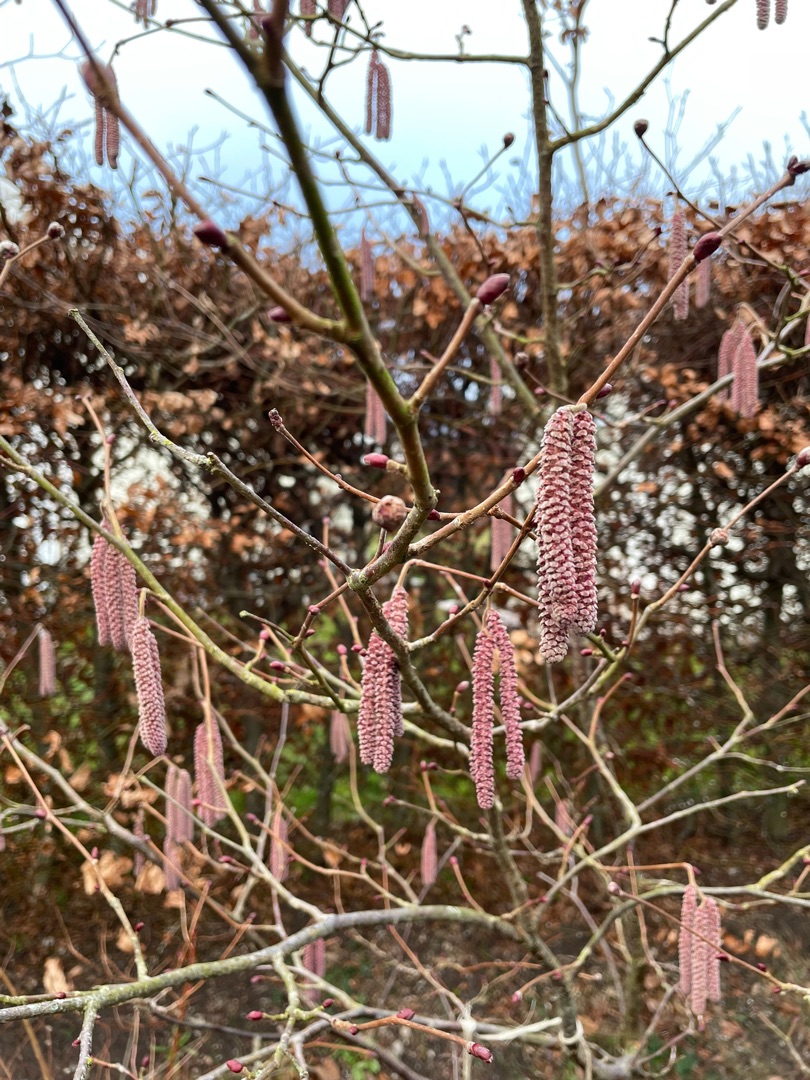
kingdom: Plantae
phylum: Tracheophyta
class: Magnoliopsida
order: Fagales
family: Betulaceae
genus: Corylus
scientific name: Corylus avellana
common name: Hassel
